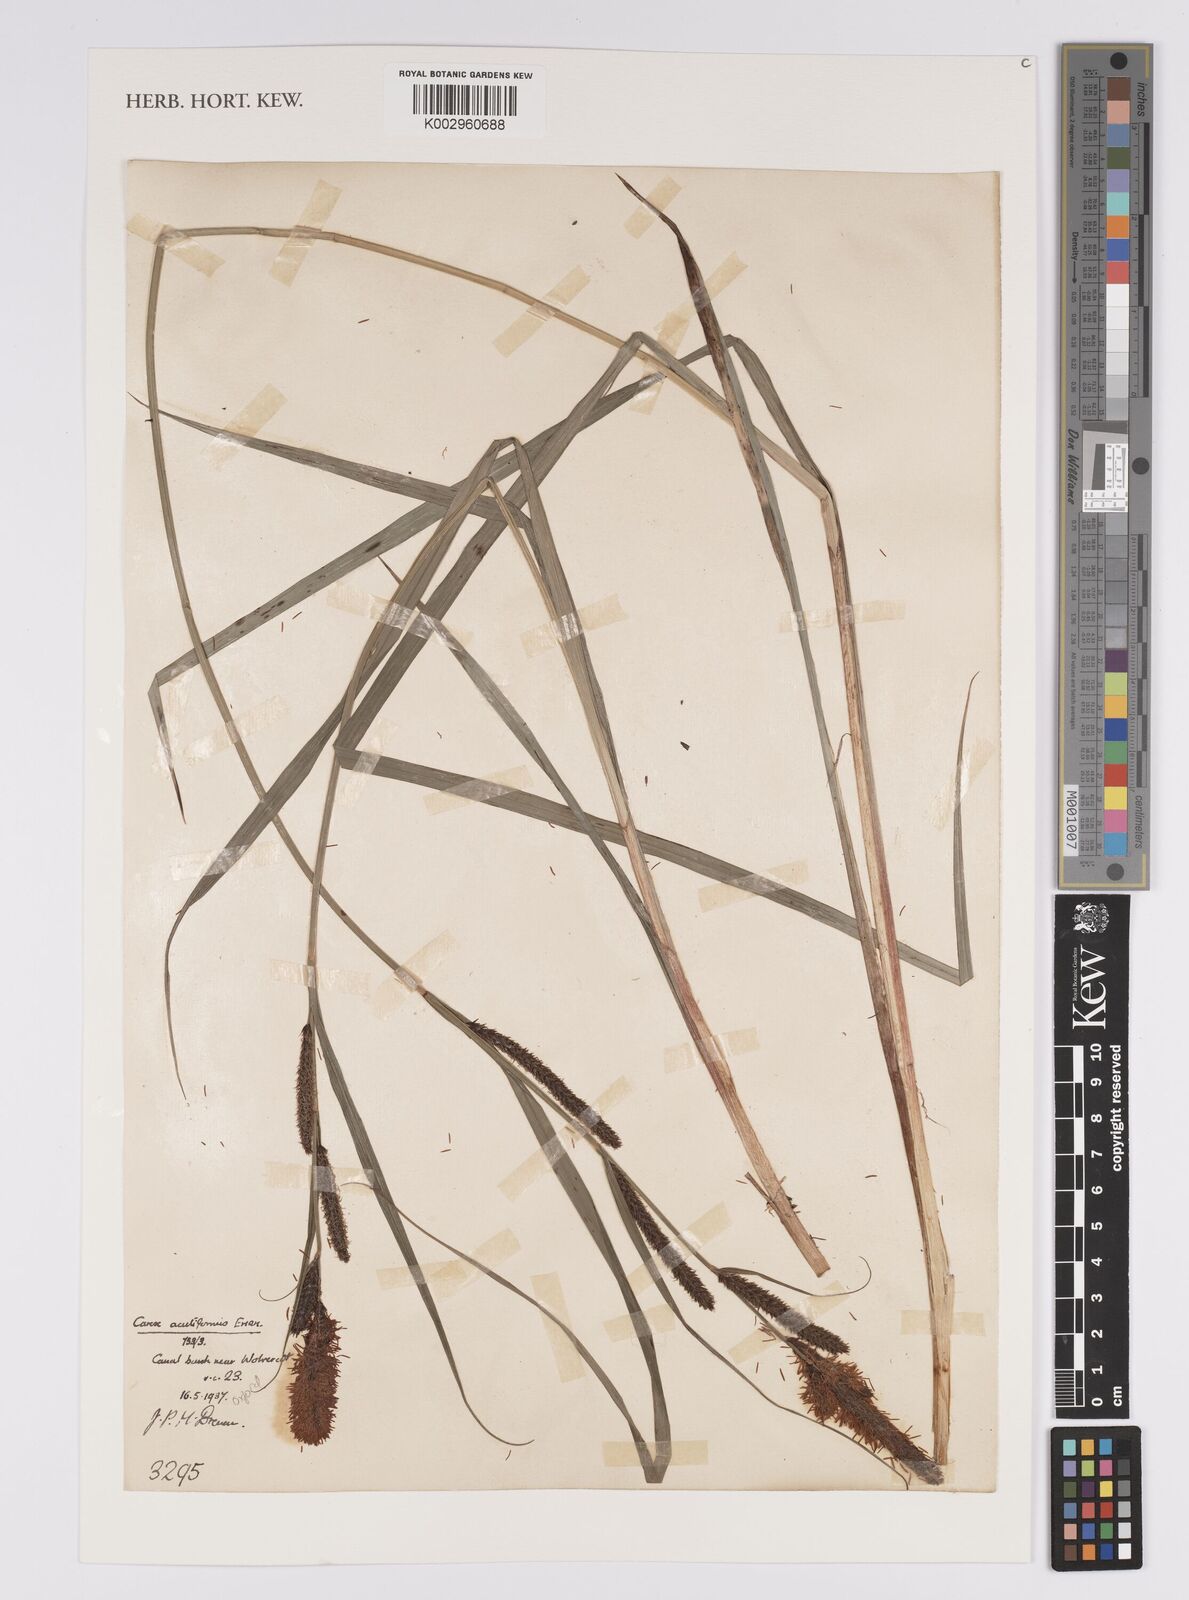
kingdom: Plantae
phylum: Tracheophyta
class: Liliopsida
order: Poales
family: Cyperaceae
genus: Carex
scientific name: Carex acutiformis
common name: Lesser pond-sedge
